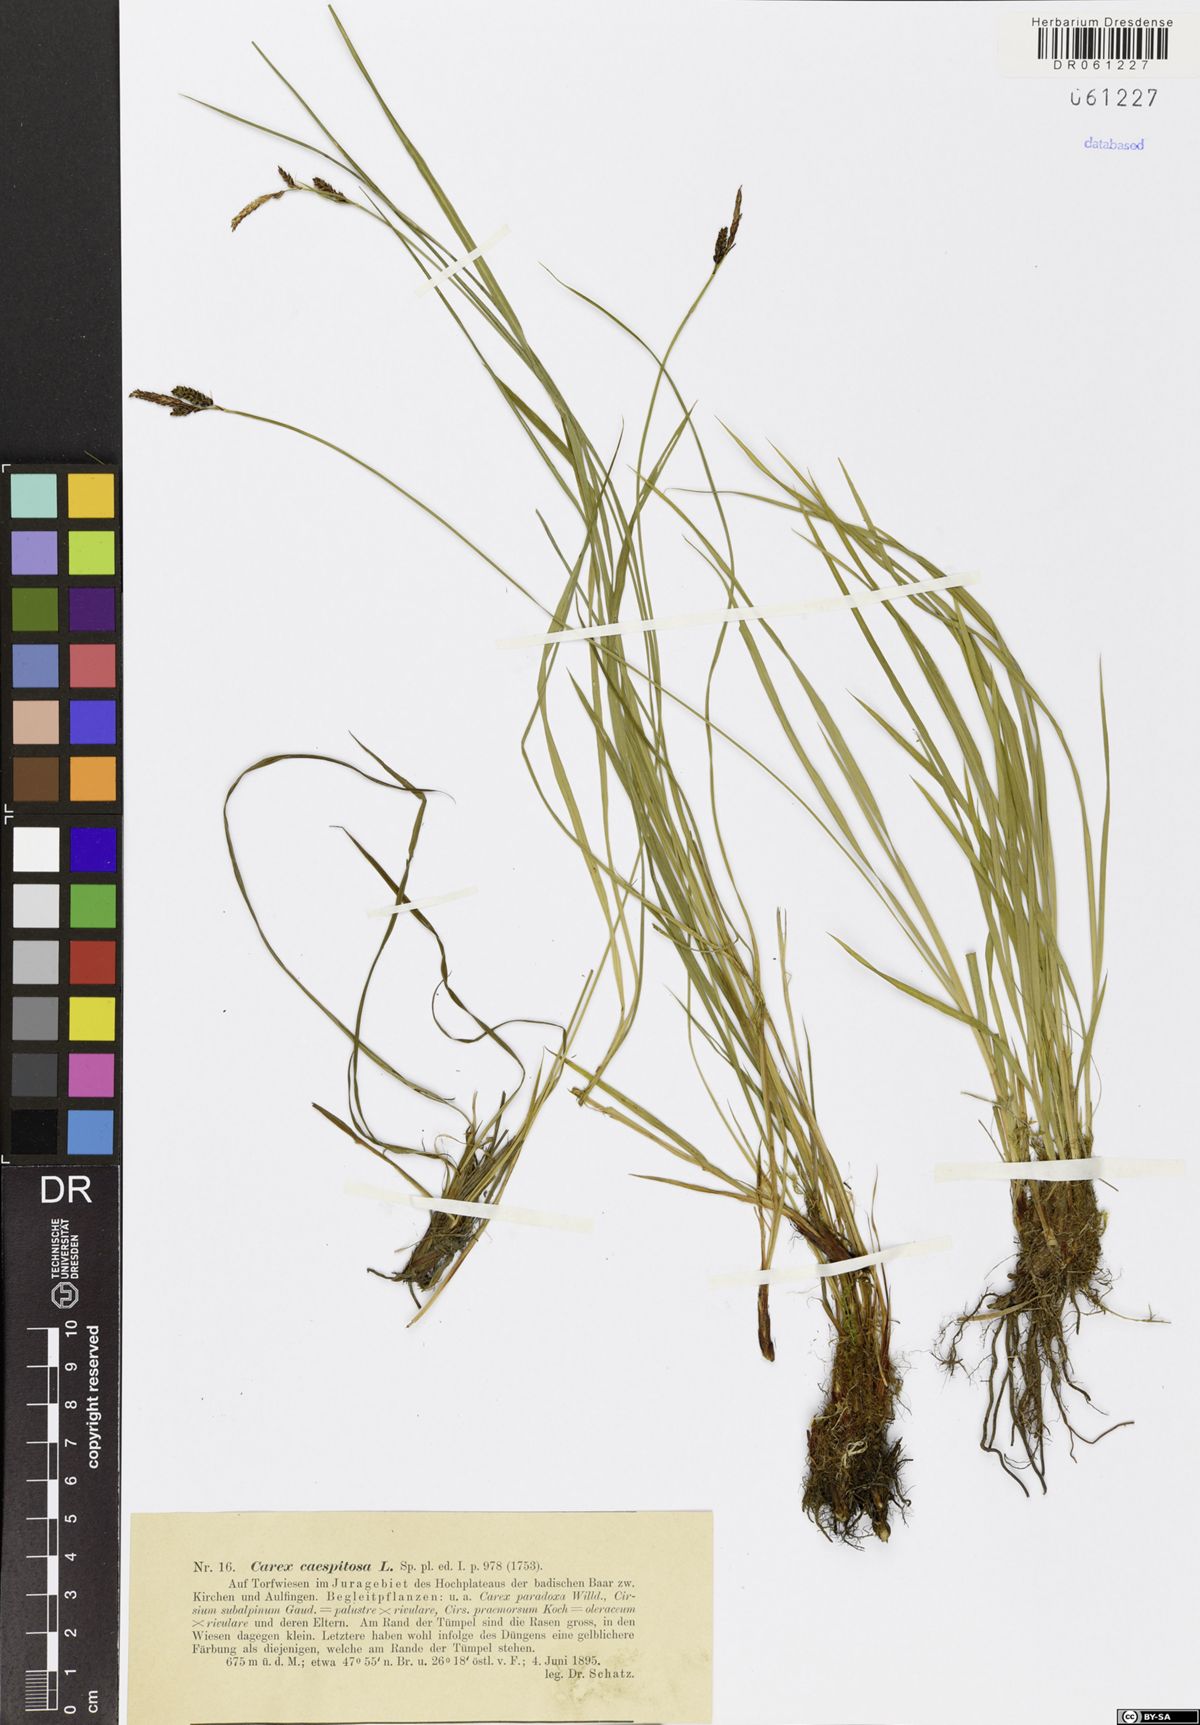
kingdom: Plantae
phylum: Tracheophyta
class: Liliopsida
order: Poales
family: Cyperaceae
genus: Carex
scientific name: Carex cespitosa
